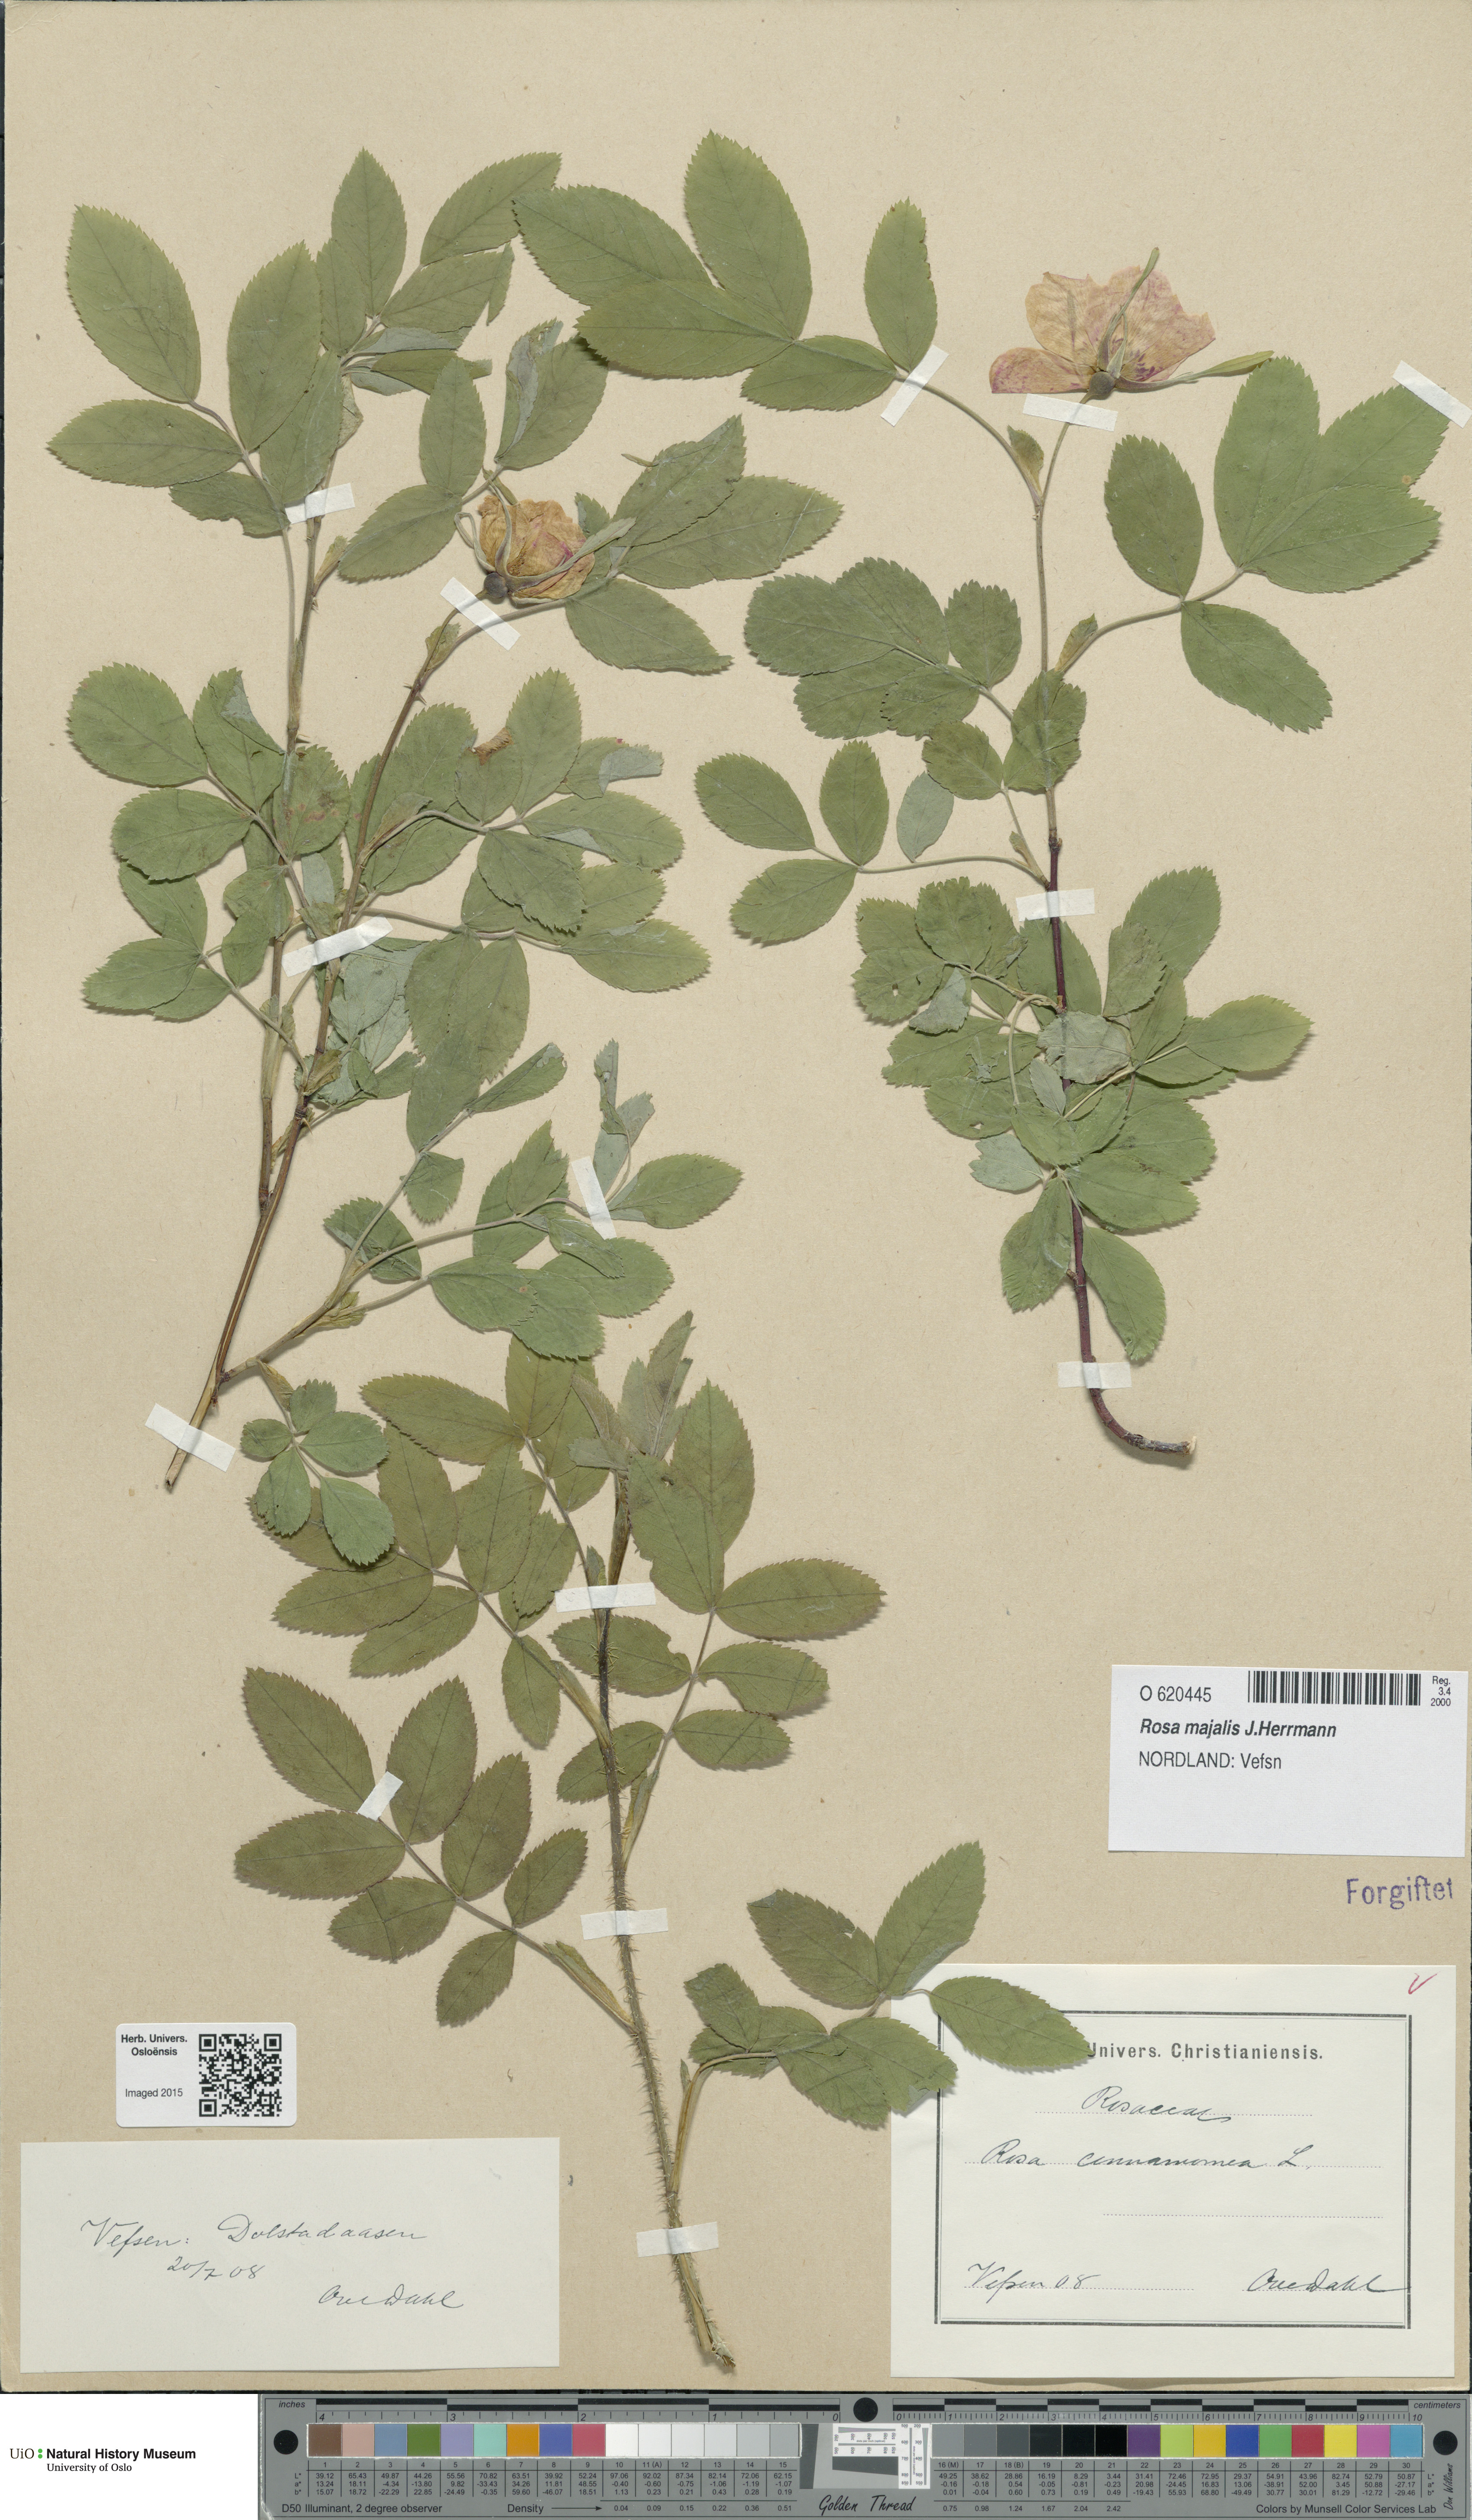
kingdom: Plantae
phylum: Tracheophyta
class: Magnoliopsida
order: Rosales
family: Rosaceae
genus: Rosa
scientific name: Rosa pendulina
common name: Alpine rose
